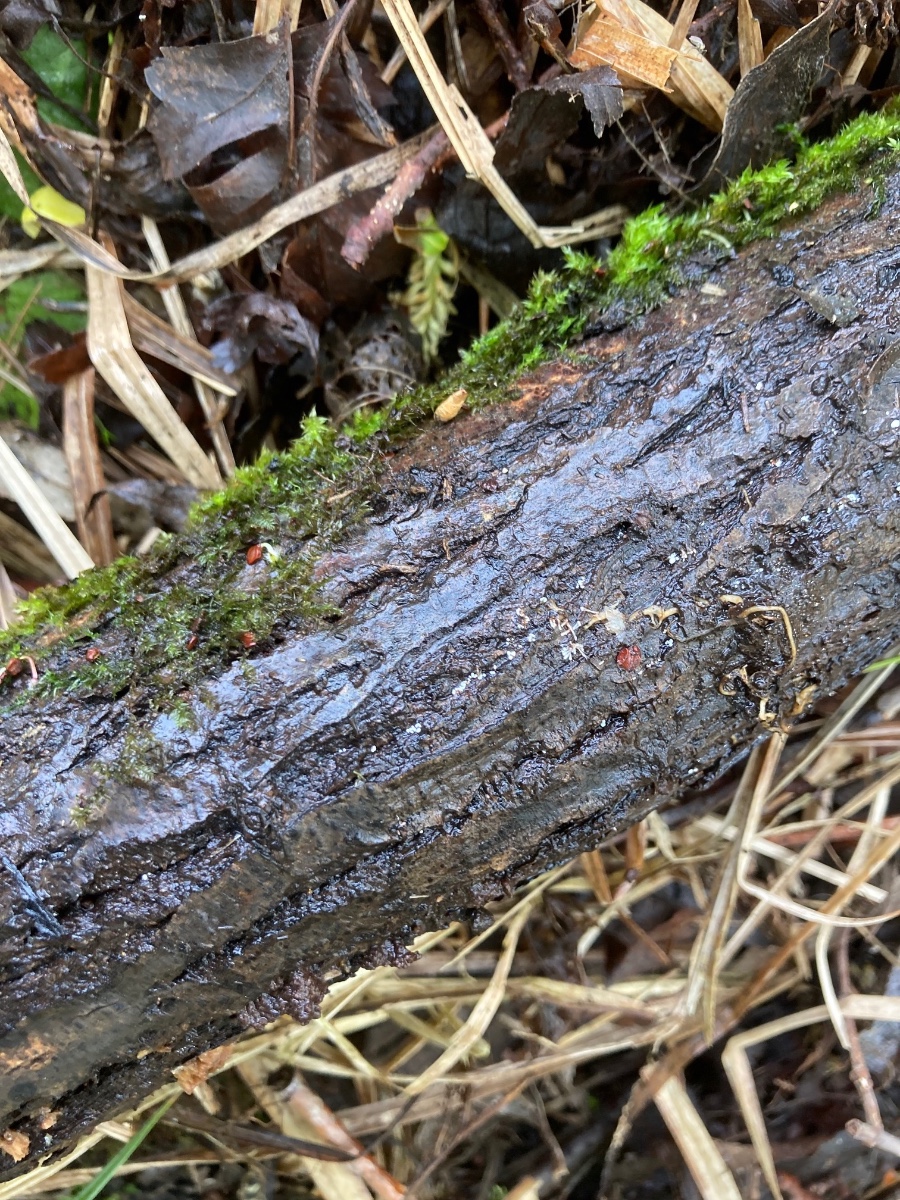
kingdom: Fungi
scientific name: Fungi
